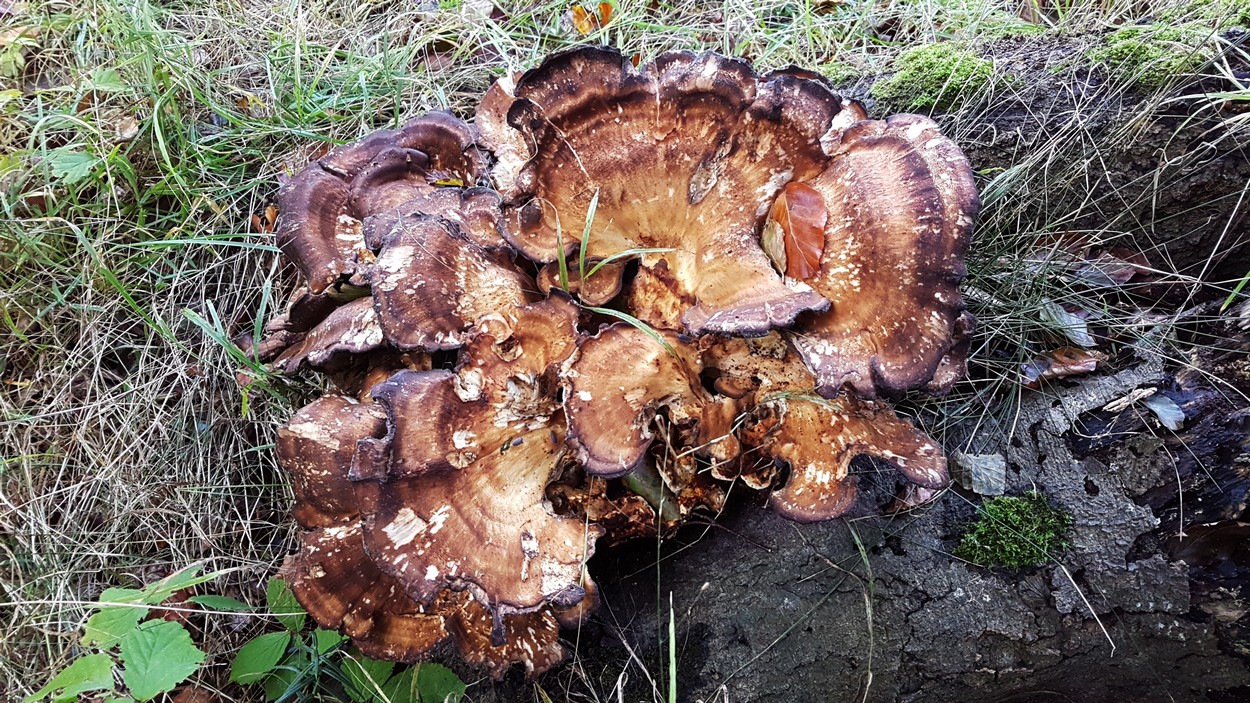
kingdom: Fungi
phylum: Basidiomycota
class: Agaricomycetes
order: Polyporales
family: Meripilaceae
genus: Meripilus
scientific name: Meripilus giganteus
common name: kæmpeporesvamp
